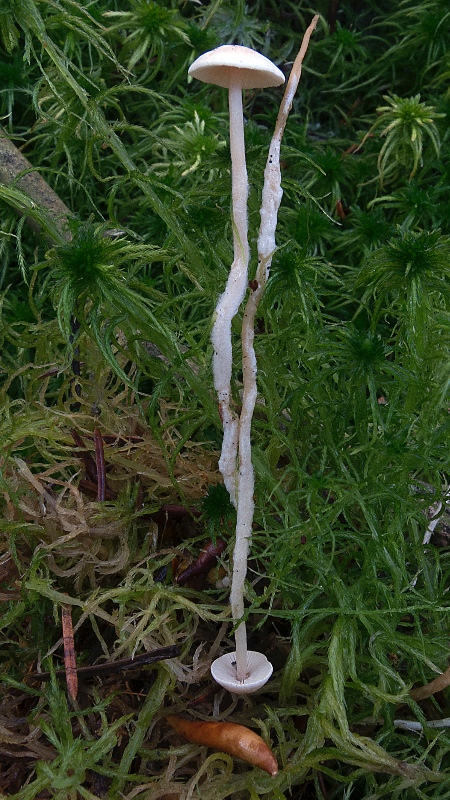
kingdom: Fungi
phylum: Basidiomycota
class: Agaricomycetes
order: Agaricales
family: Tricholomataceae
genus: Collybia
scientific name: Collybia tuberosa
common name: spidsknoldet lighat
